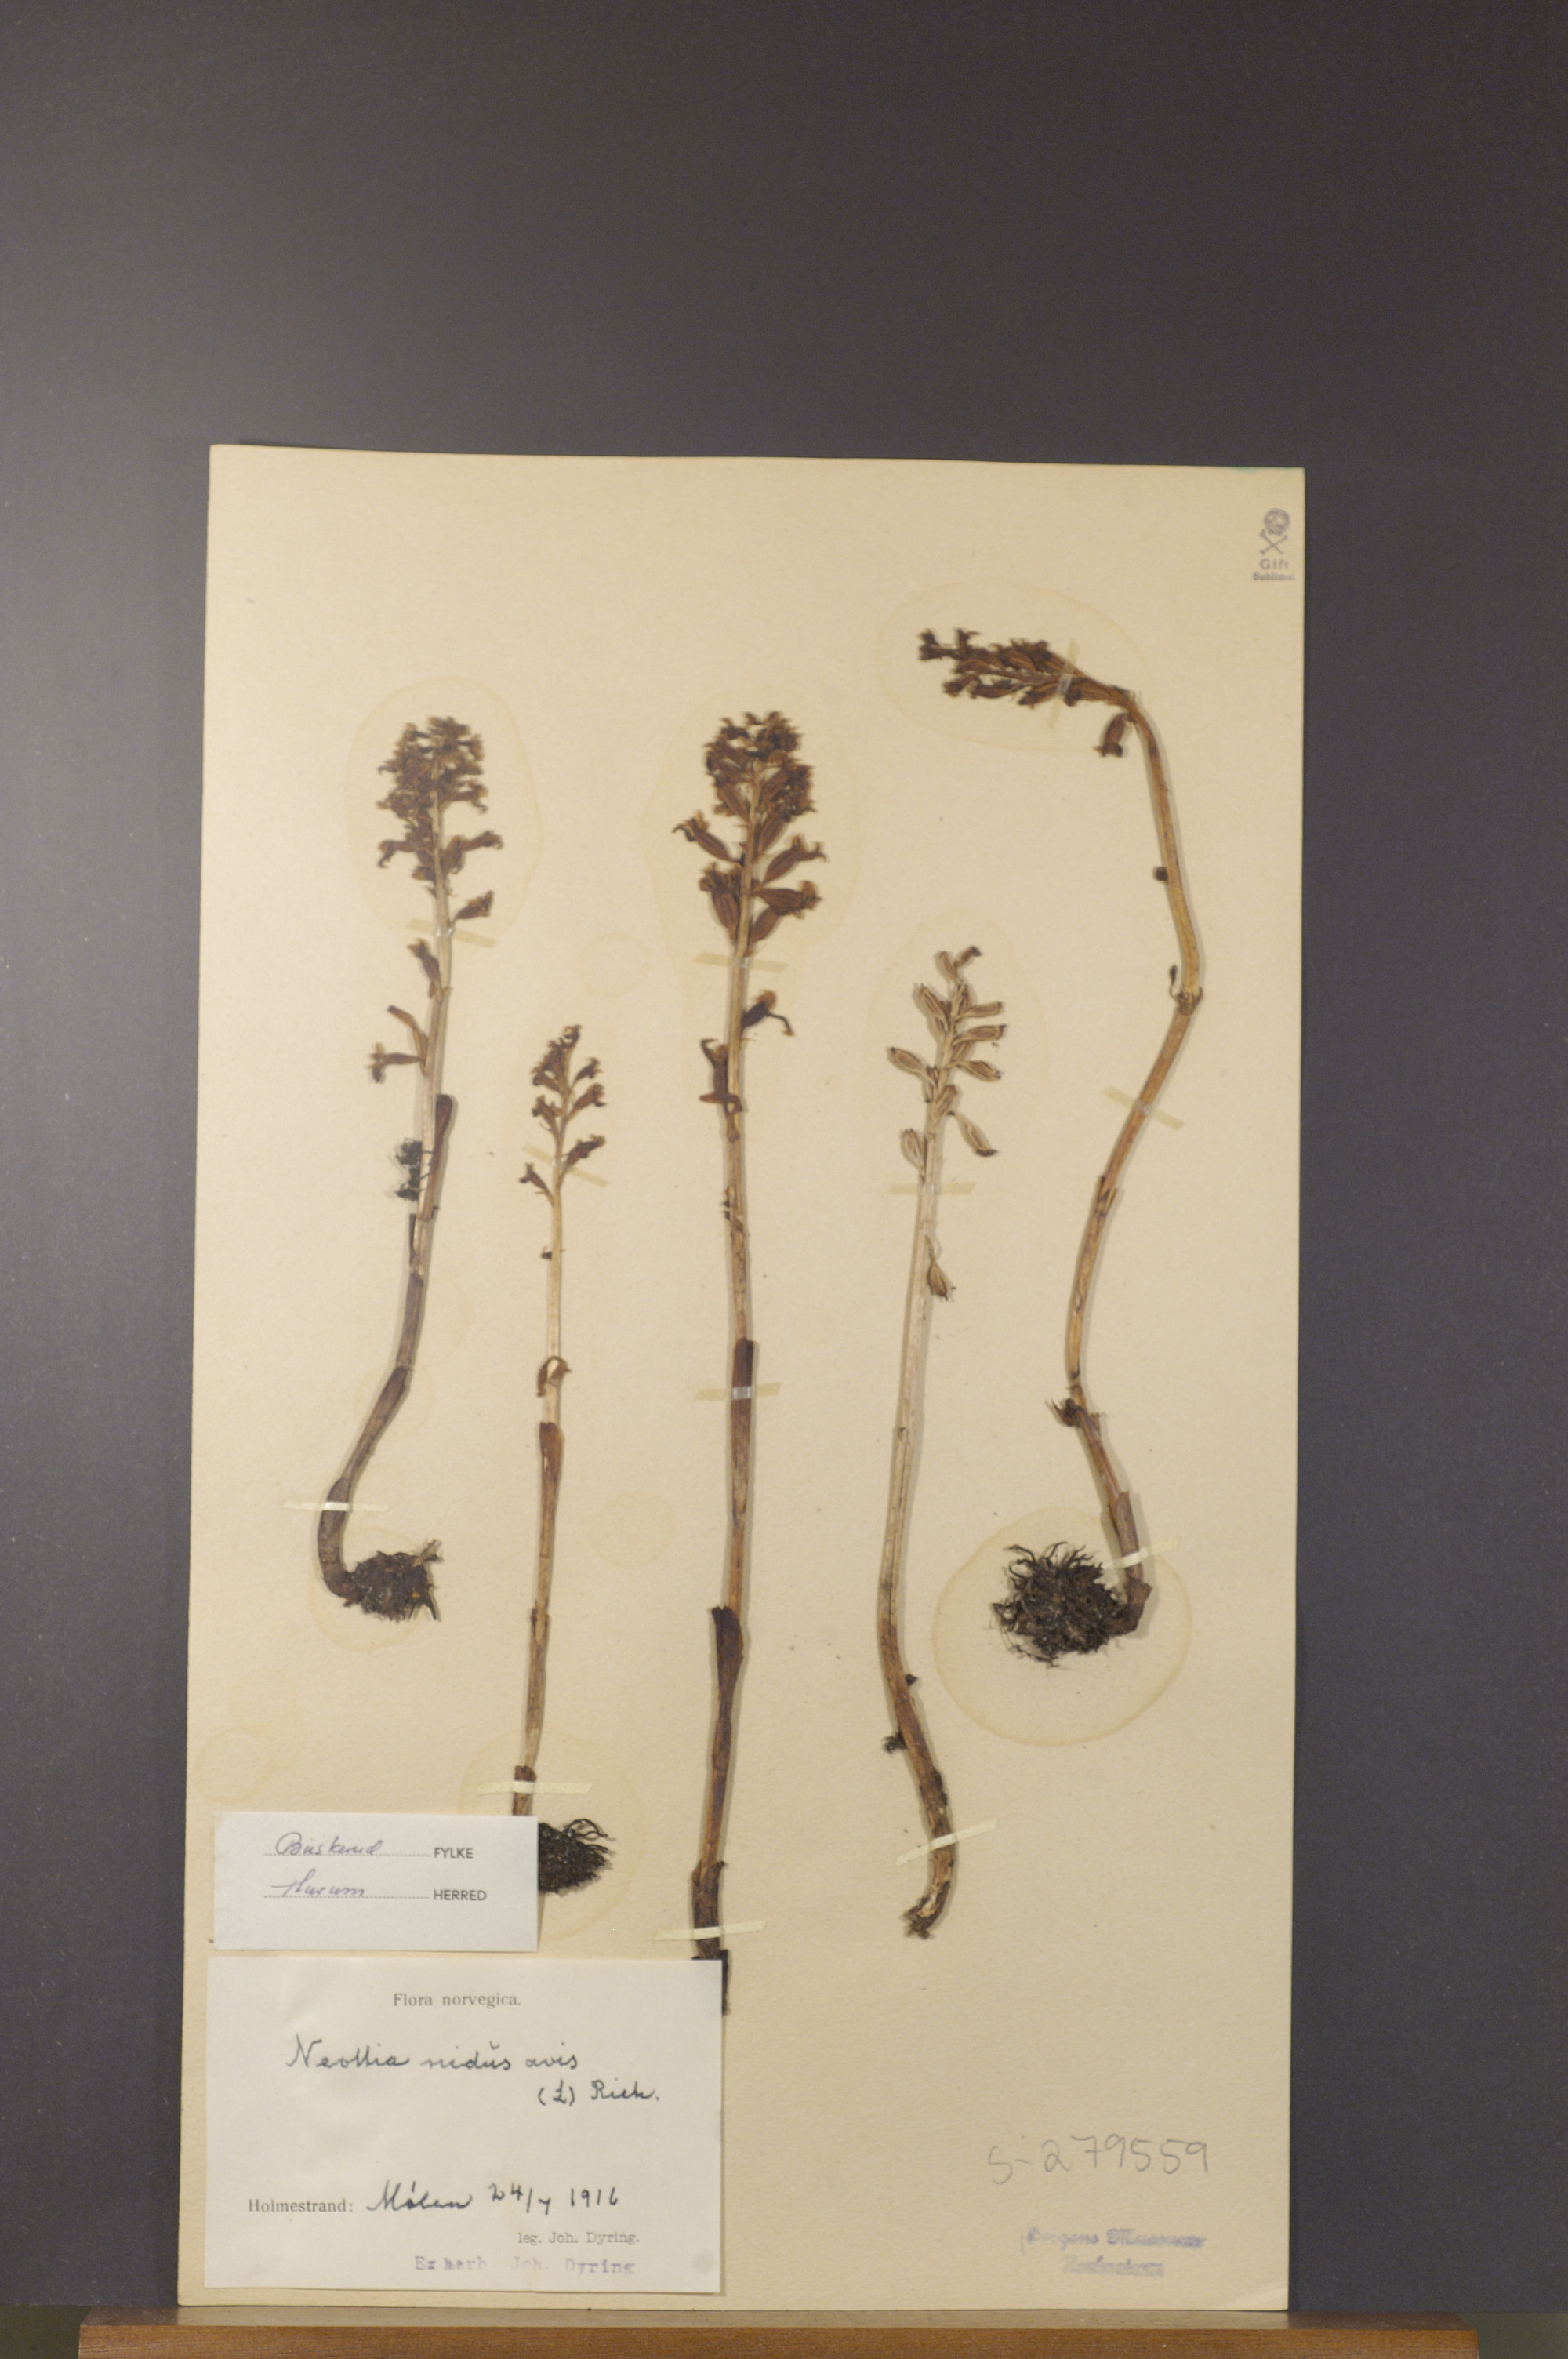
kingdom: Plantae
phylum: Tracheophyta
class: Liliopsida
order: Asparagales
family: Orchidaceae
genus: Neottia
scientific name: Neottia nidus-avis
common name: Bird's-nest orchid
